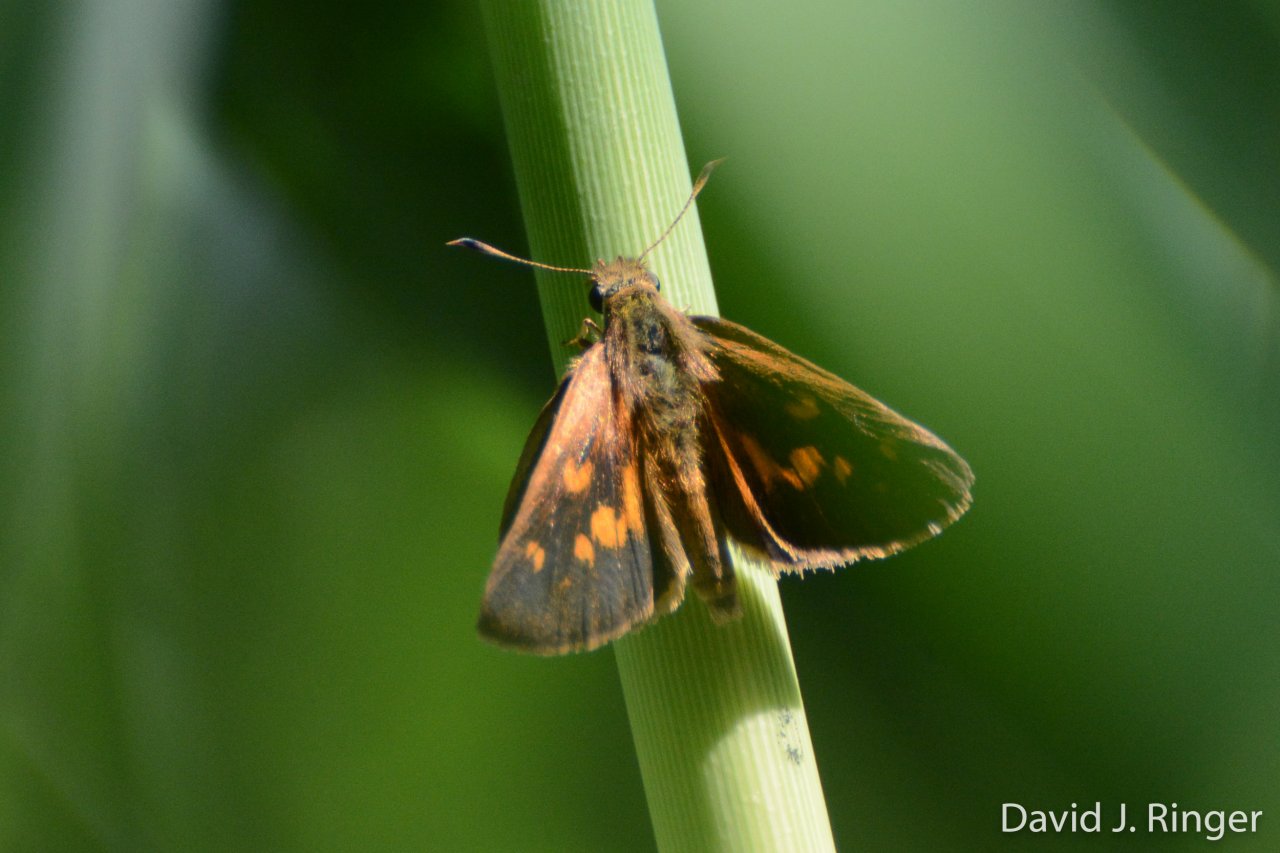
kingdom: Animalia
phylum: Arthropoda
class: Insecta
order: Lepidoptera
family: Hesperiidae
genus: Poanes
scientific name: Poanes viator
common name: Broad-winged Skipper
